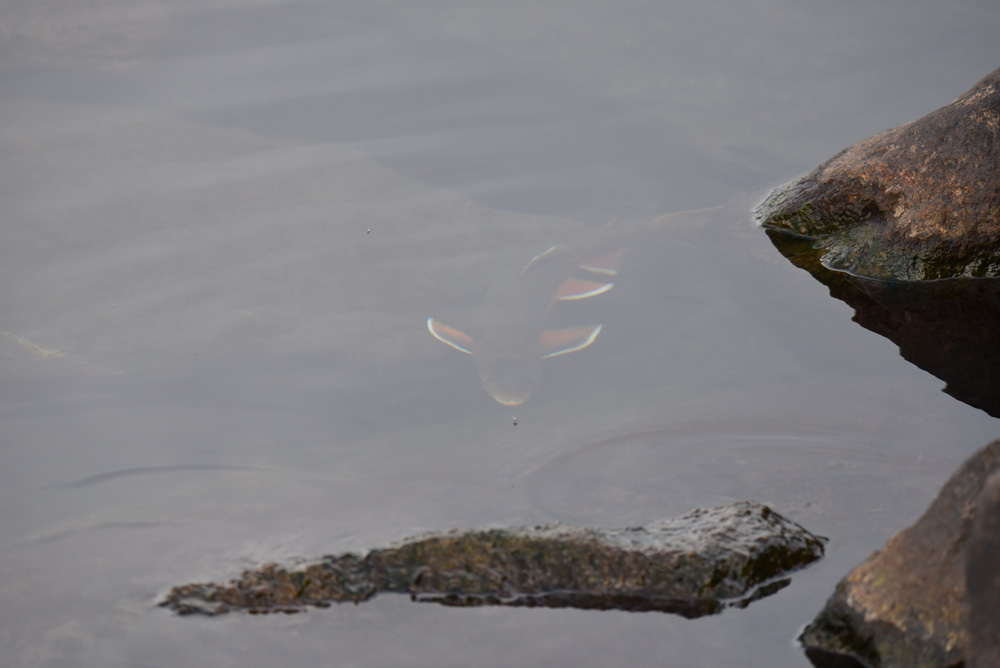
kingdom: Animalia
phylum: Chordata
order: Salmoniformes
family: Salmonidae
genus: Salvelinus
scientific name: Salvelinus alpinus
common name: Charr
